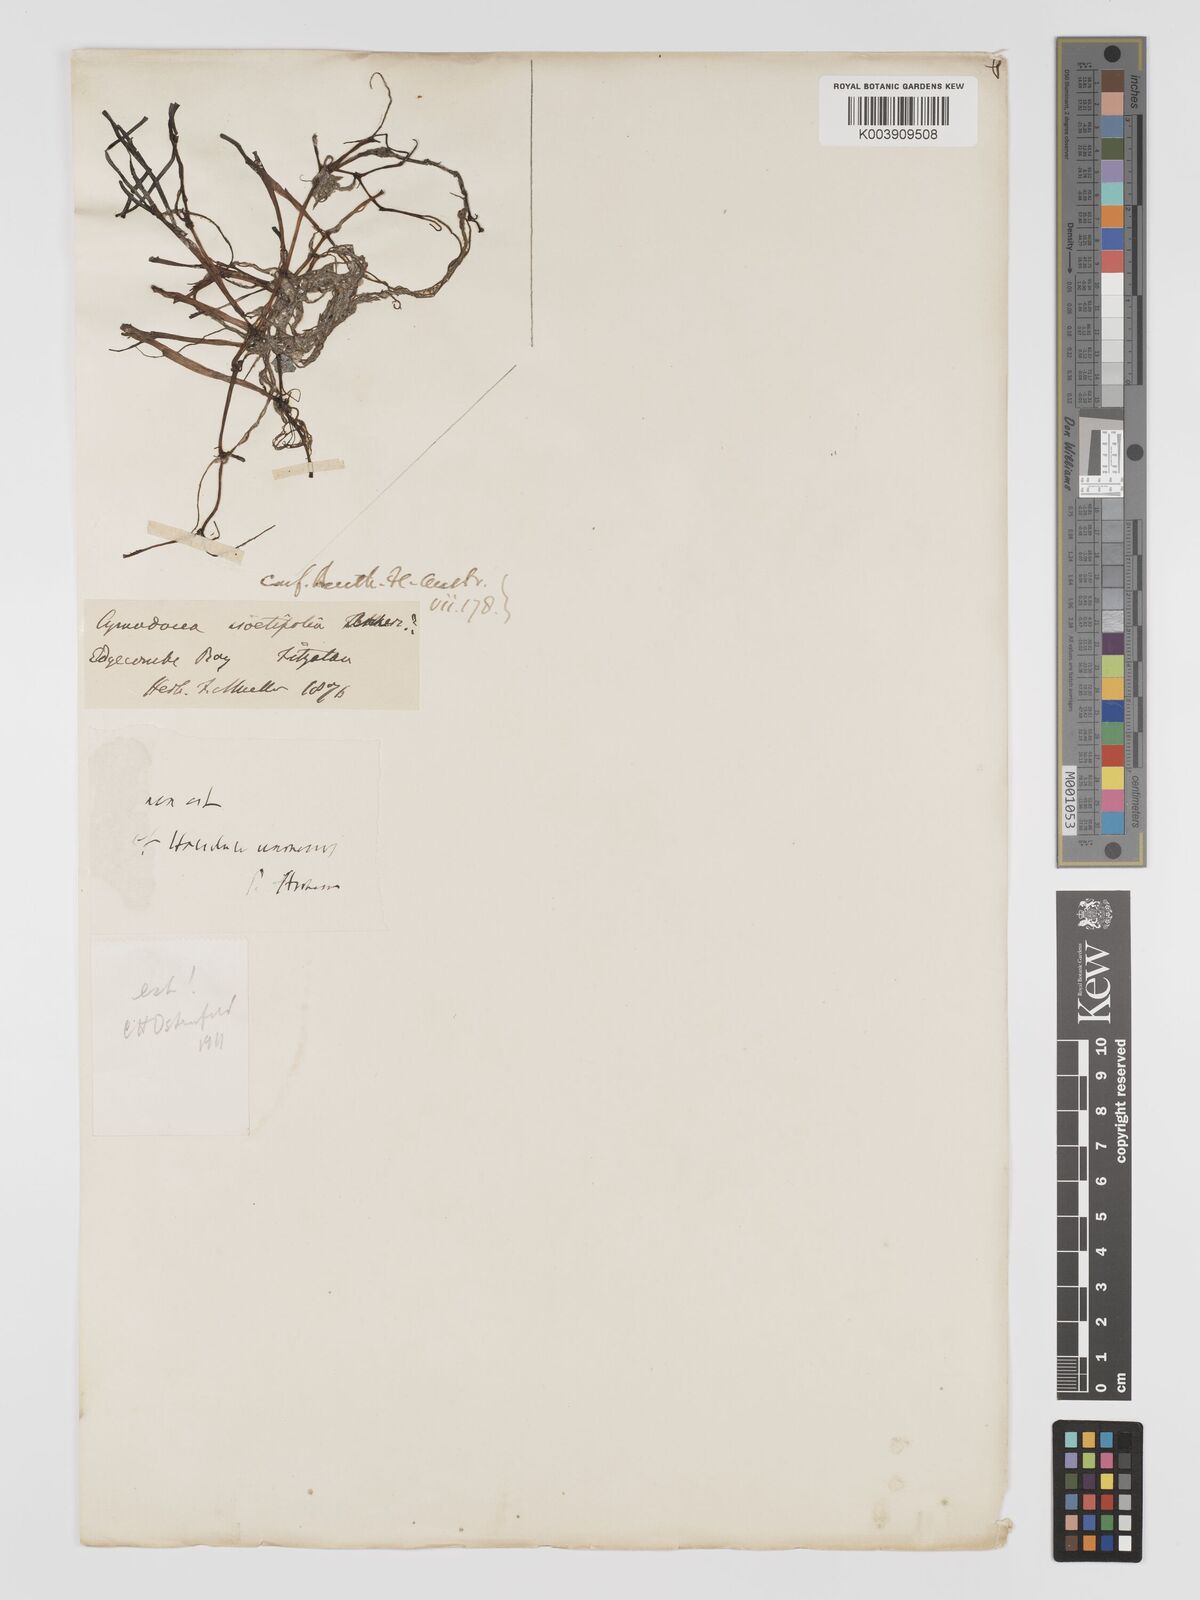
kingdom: Plantae
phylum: Tracheophyta
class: Liliopsida
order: Alismatales
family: Cymodoceaceae
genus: Syringodium
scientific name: Syringodium isoetifolium
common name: Species code: si
